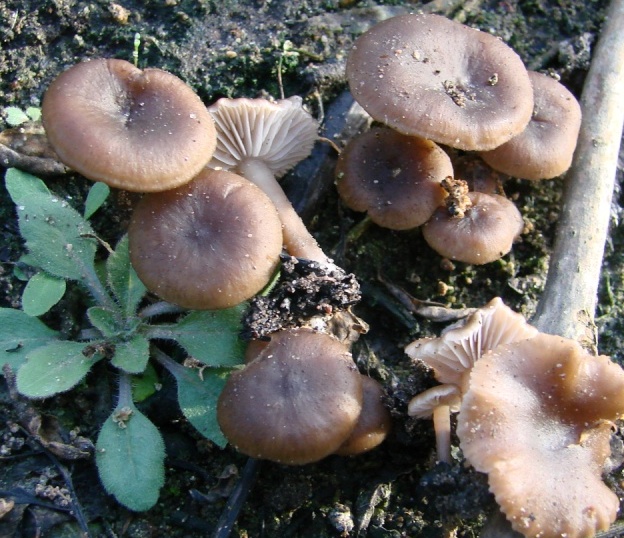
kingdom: Fungi
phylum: Basidiomycota
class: Agaricomycetes
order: Agaricales
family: Lyophyllaceae
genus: Tephrocybe
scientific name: Tephrocybe ambusta
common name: kul-gråblad
